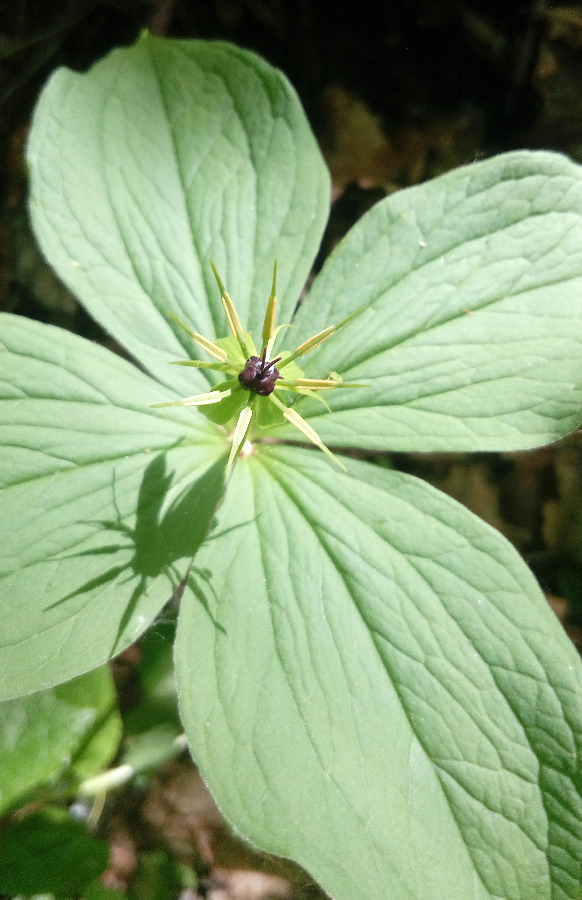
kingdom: Plantae
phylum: Tracheophyta
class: Liliopsida
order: Liliales
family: Melanthiaceae
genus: Paris
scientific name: Paris quadrifolia
